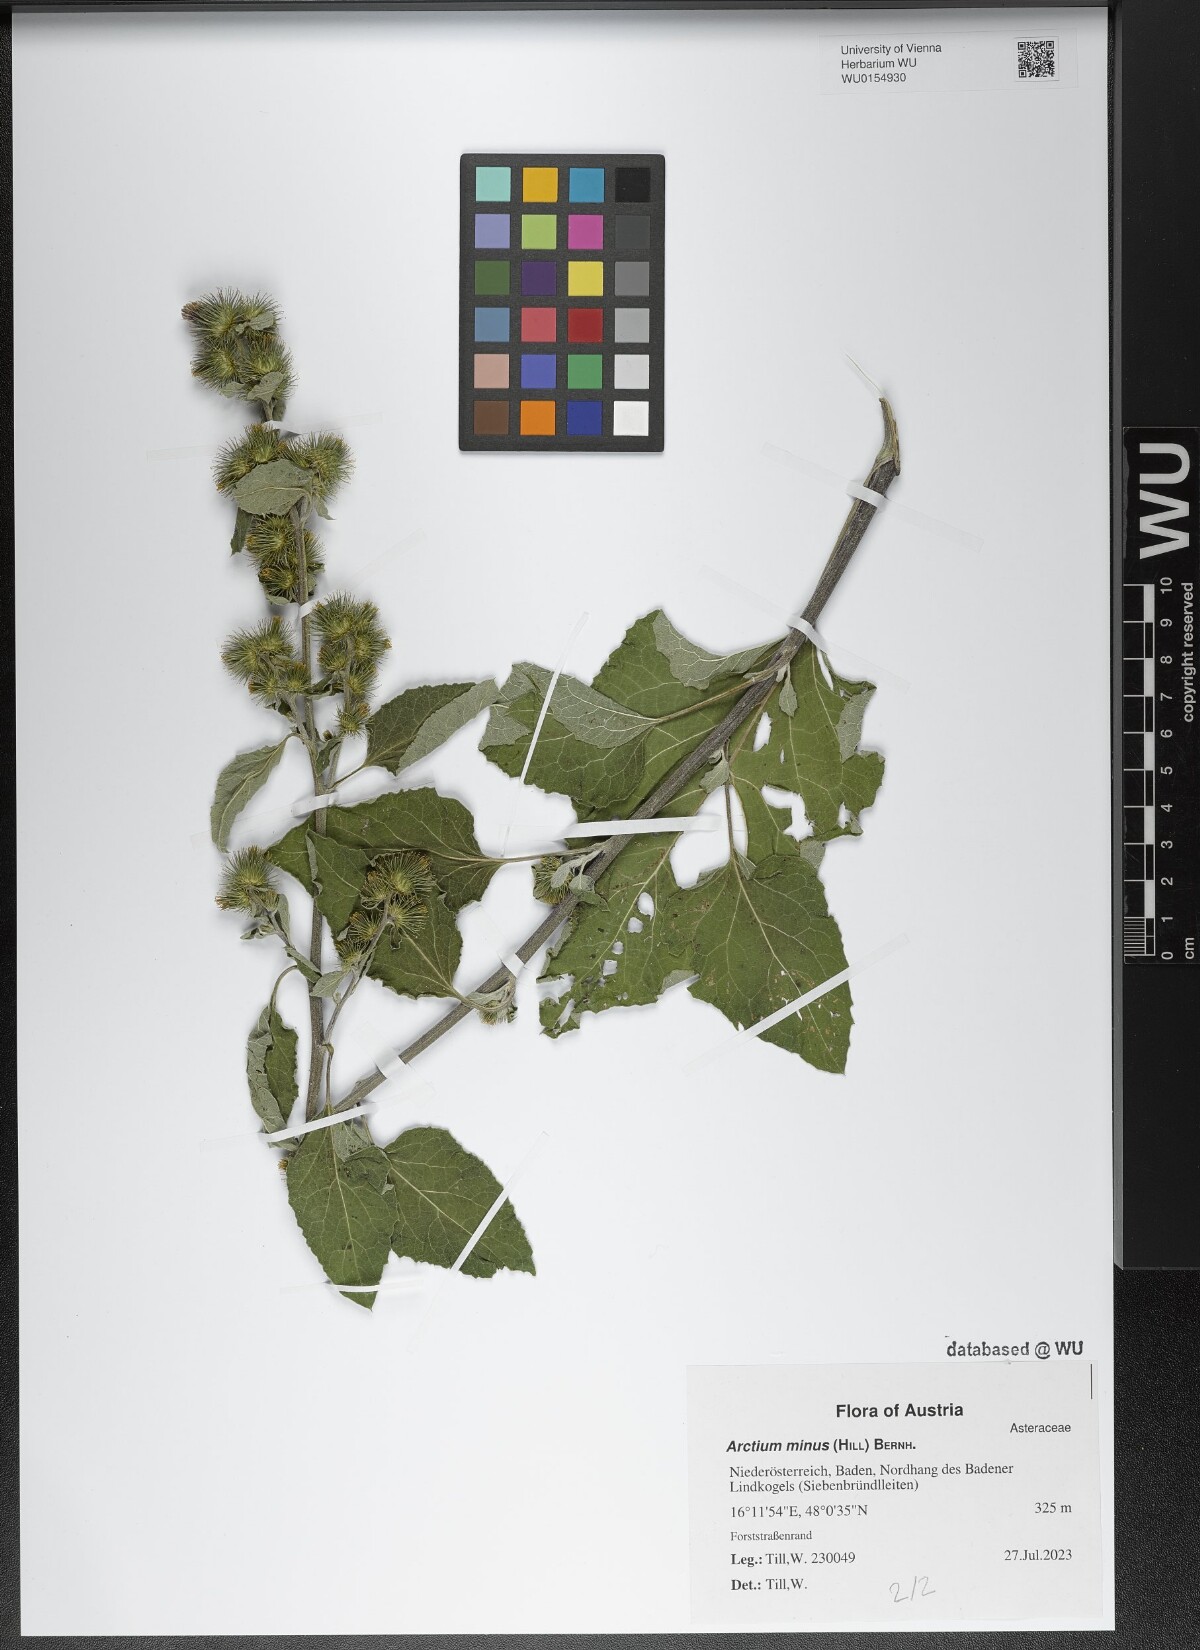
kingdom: Plantae
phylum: Tracheophyta
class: Magnoliopsida
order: Asterales
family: Asteraceae
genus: Arctium
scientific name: Arctium minus
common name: Lesser burdock
